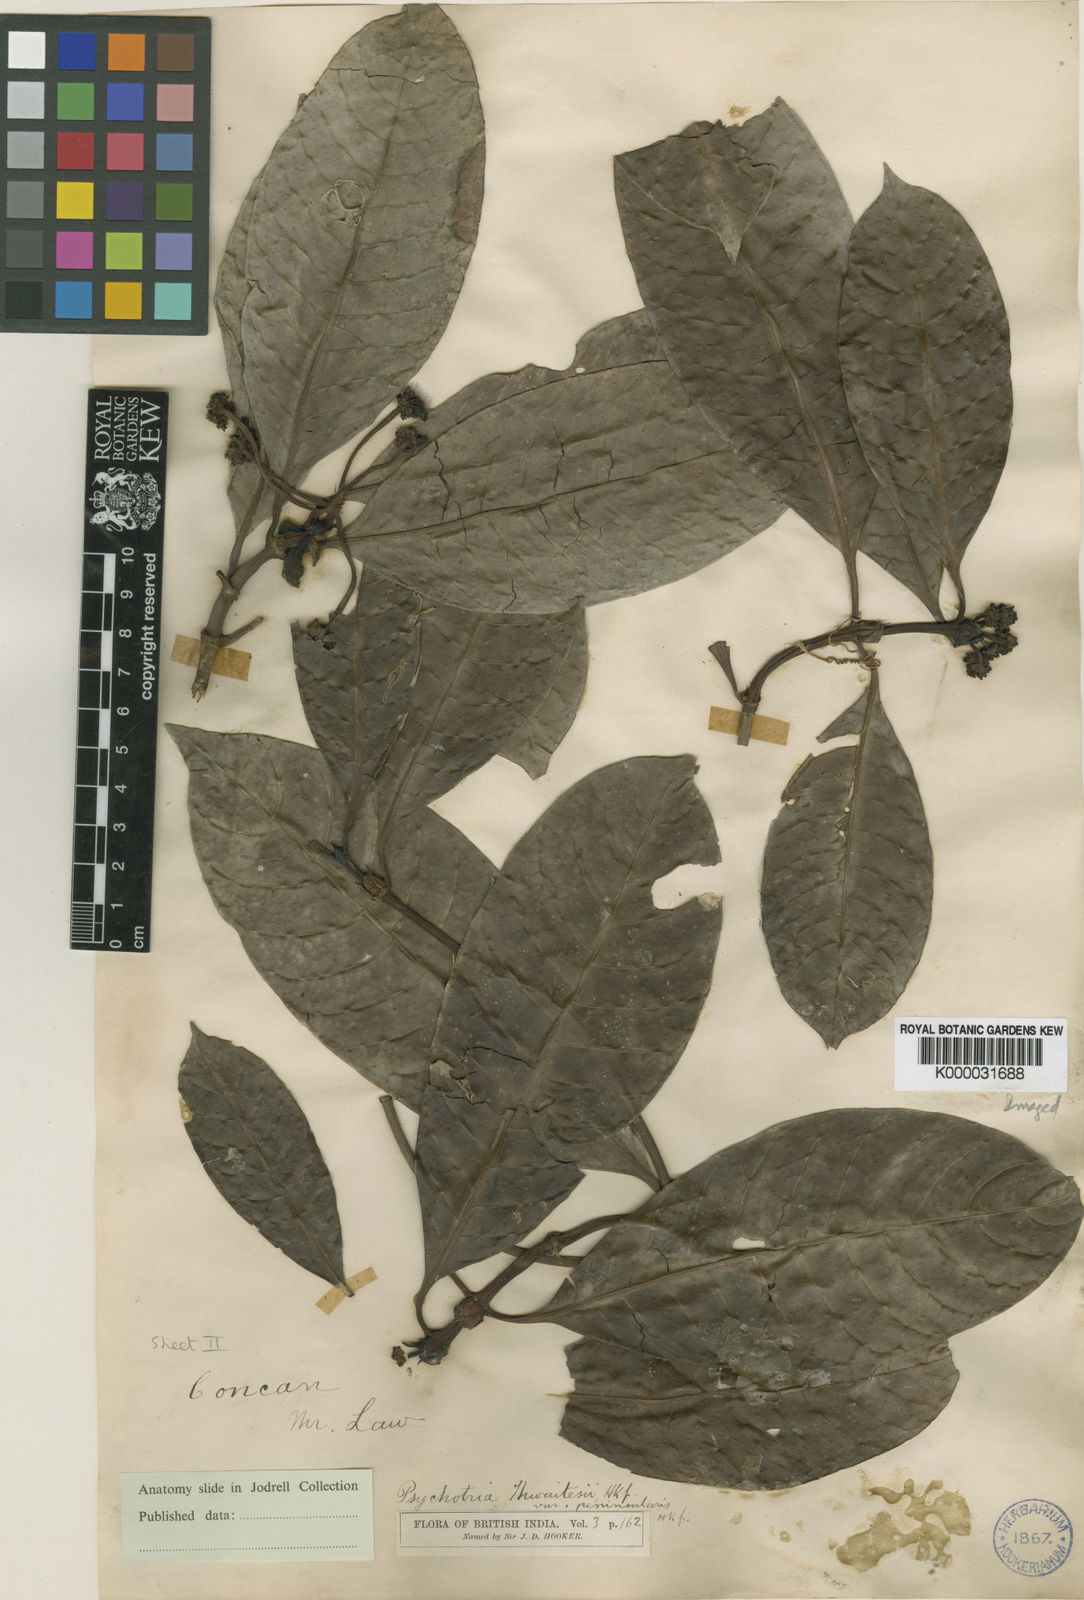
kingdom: Plantae
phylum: Tracheophyta
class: Magnoliopsida
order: Gentianales
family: Rubiaceae
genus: Psychotria
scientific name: Psychotria nigra
